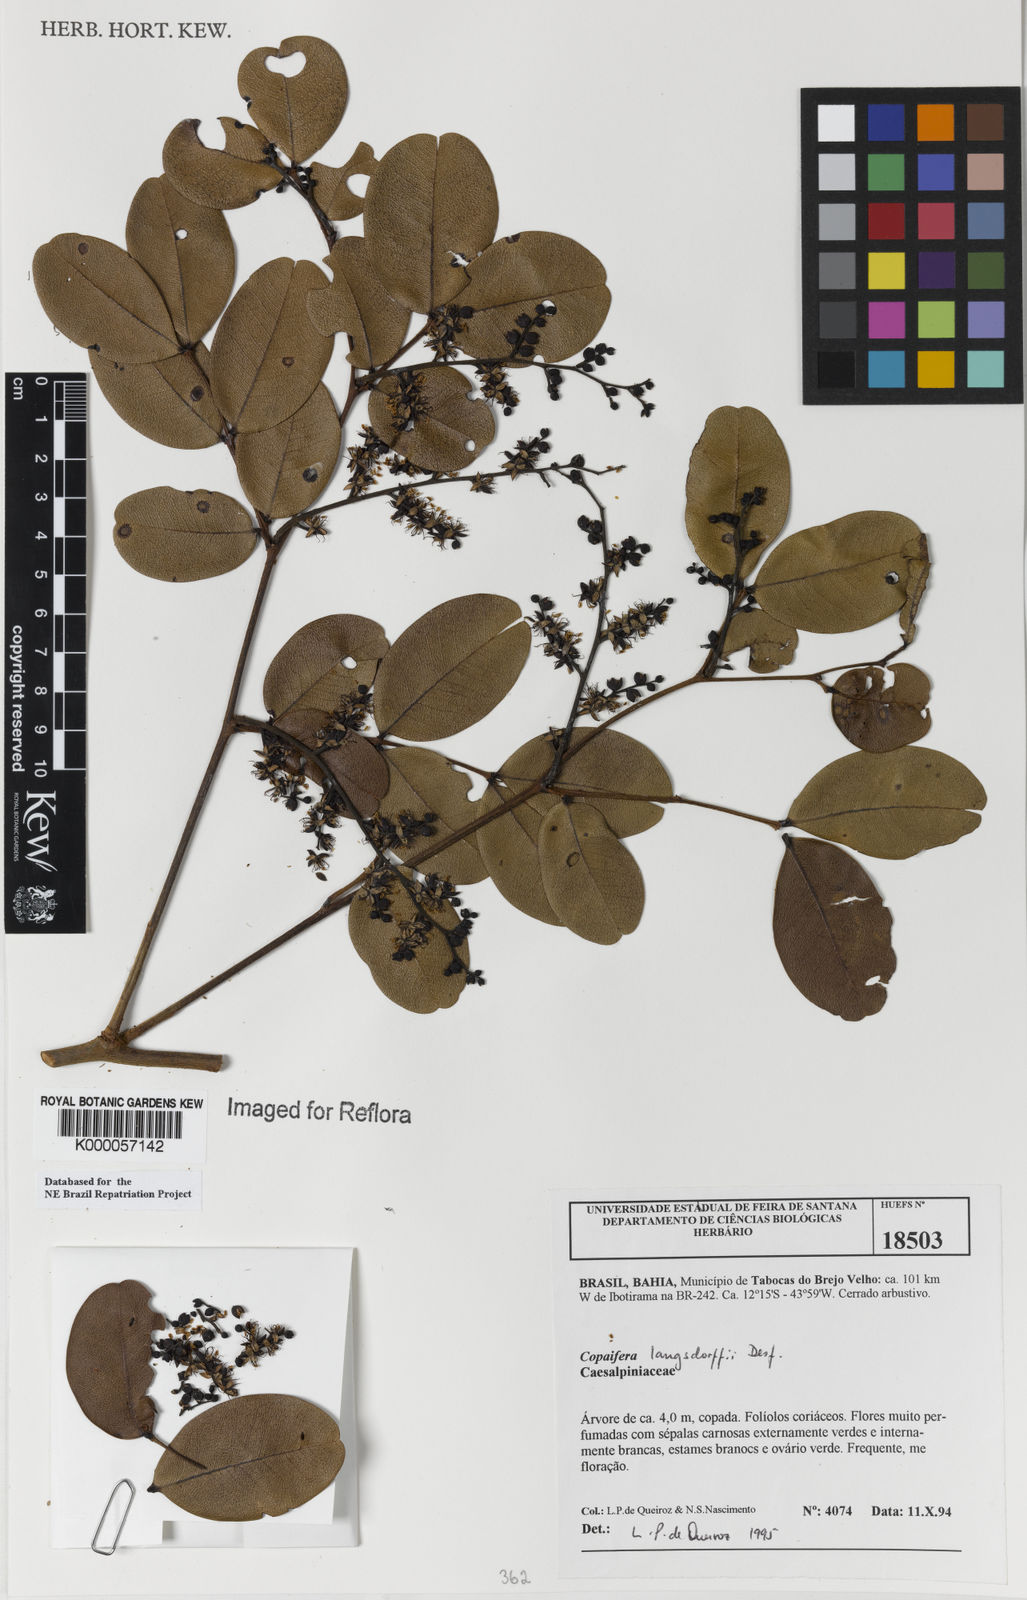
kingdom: Plantae
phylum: Tracheophyta
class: Magnoliopsida
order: Fabales
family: Fabaceae
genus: Copaifera
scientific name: Copaifera langsdorffii
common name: Brazilian diesel tree
